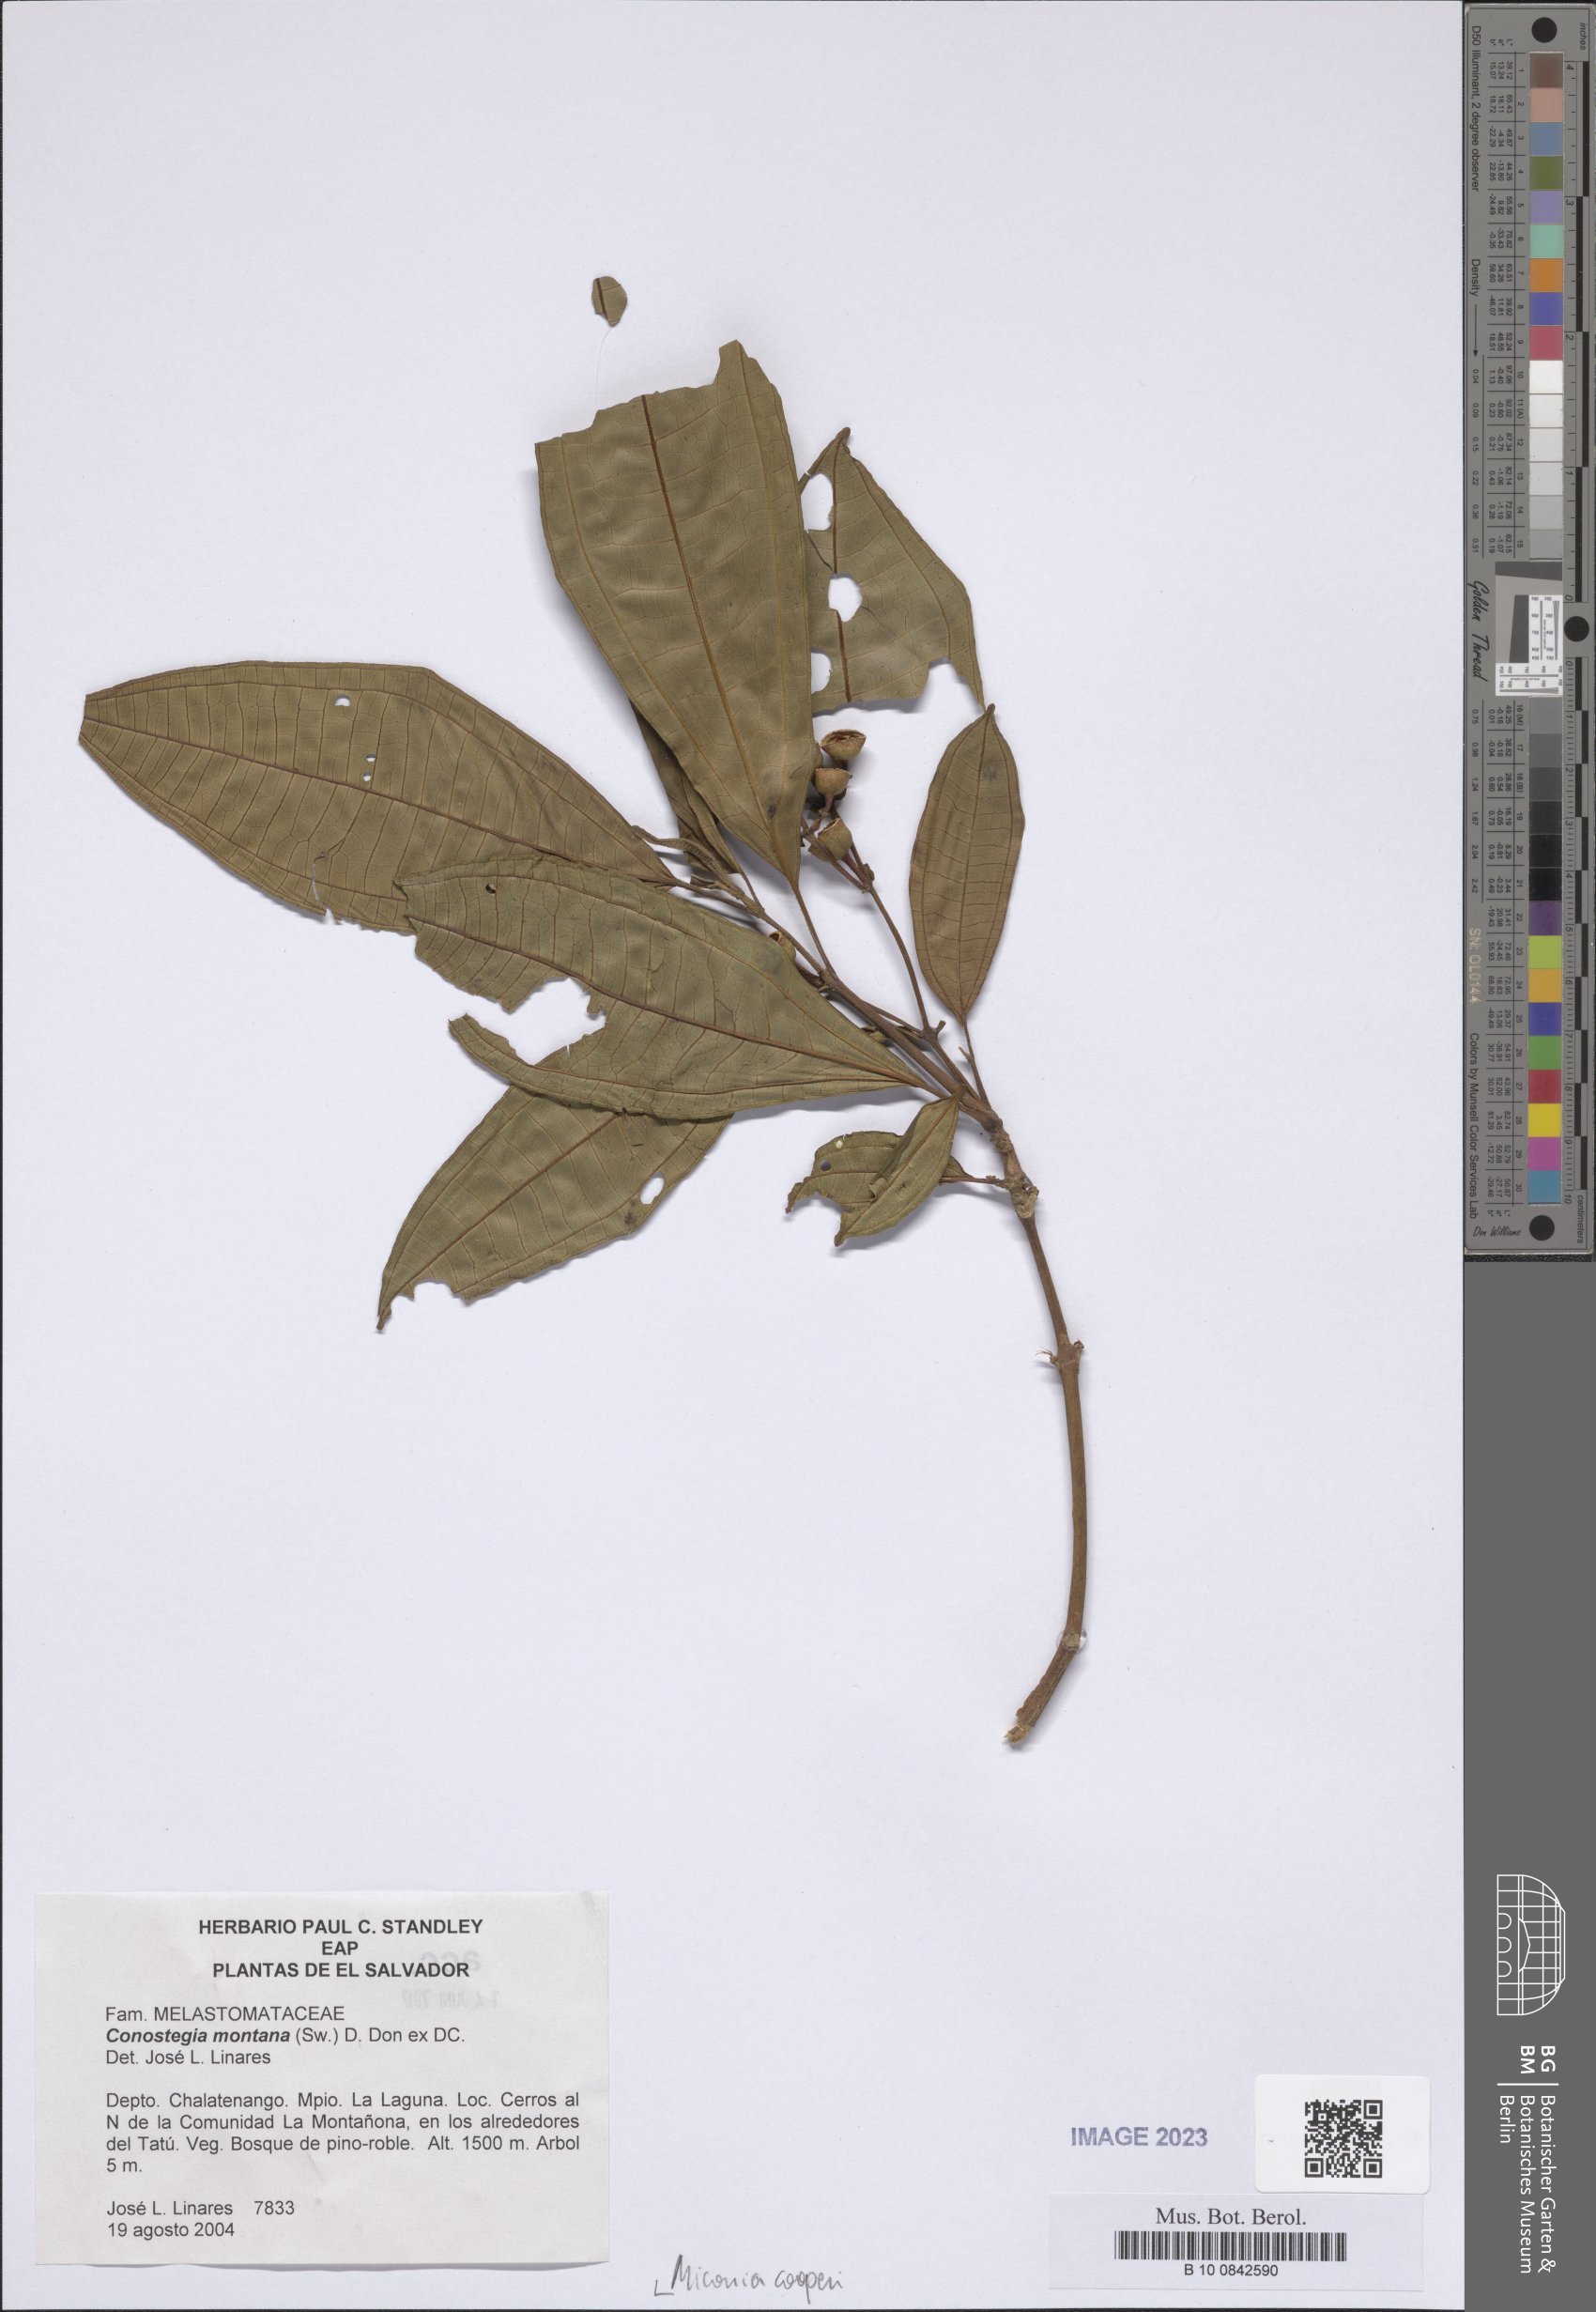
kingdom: Plantae
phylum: Tracheophyta
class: Magnoliopsida
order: Myrtales
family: Melastomataceae
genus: Miconia
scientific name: Miconia cooperi
